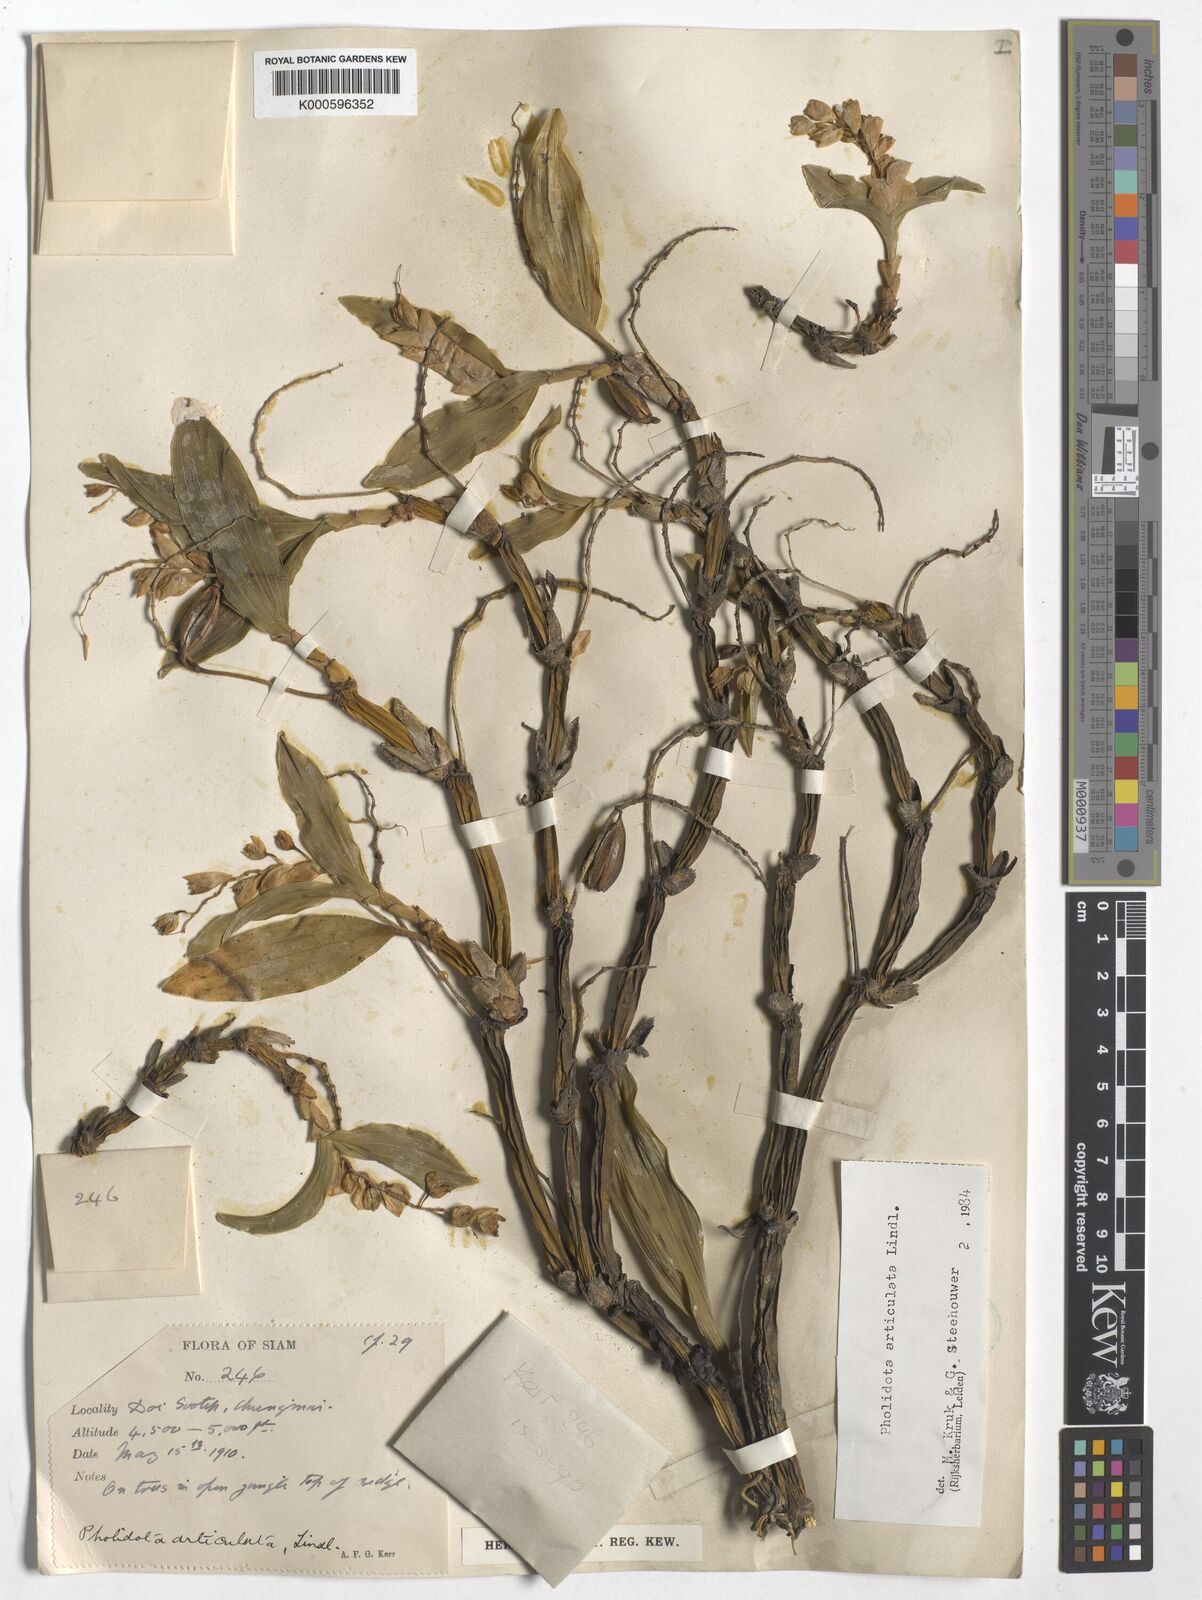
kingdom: Plantae
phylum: Tracheophyta
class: Liliopsida
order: Asparagales
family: Orchidaceae
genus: Coelogyne
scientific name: Coelogyne articulata
